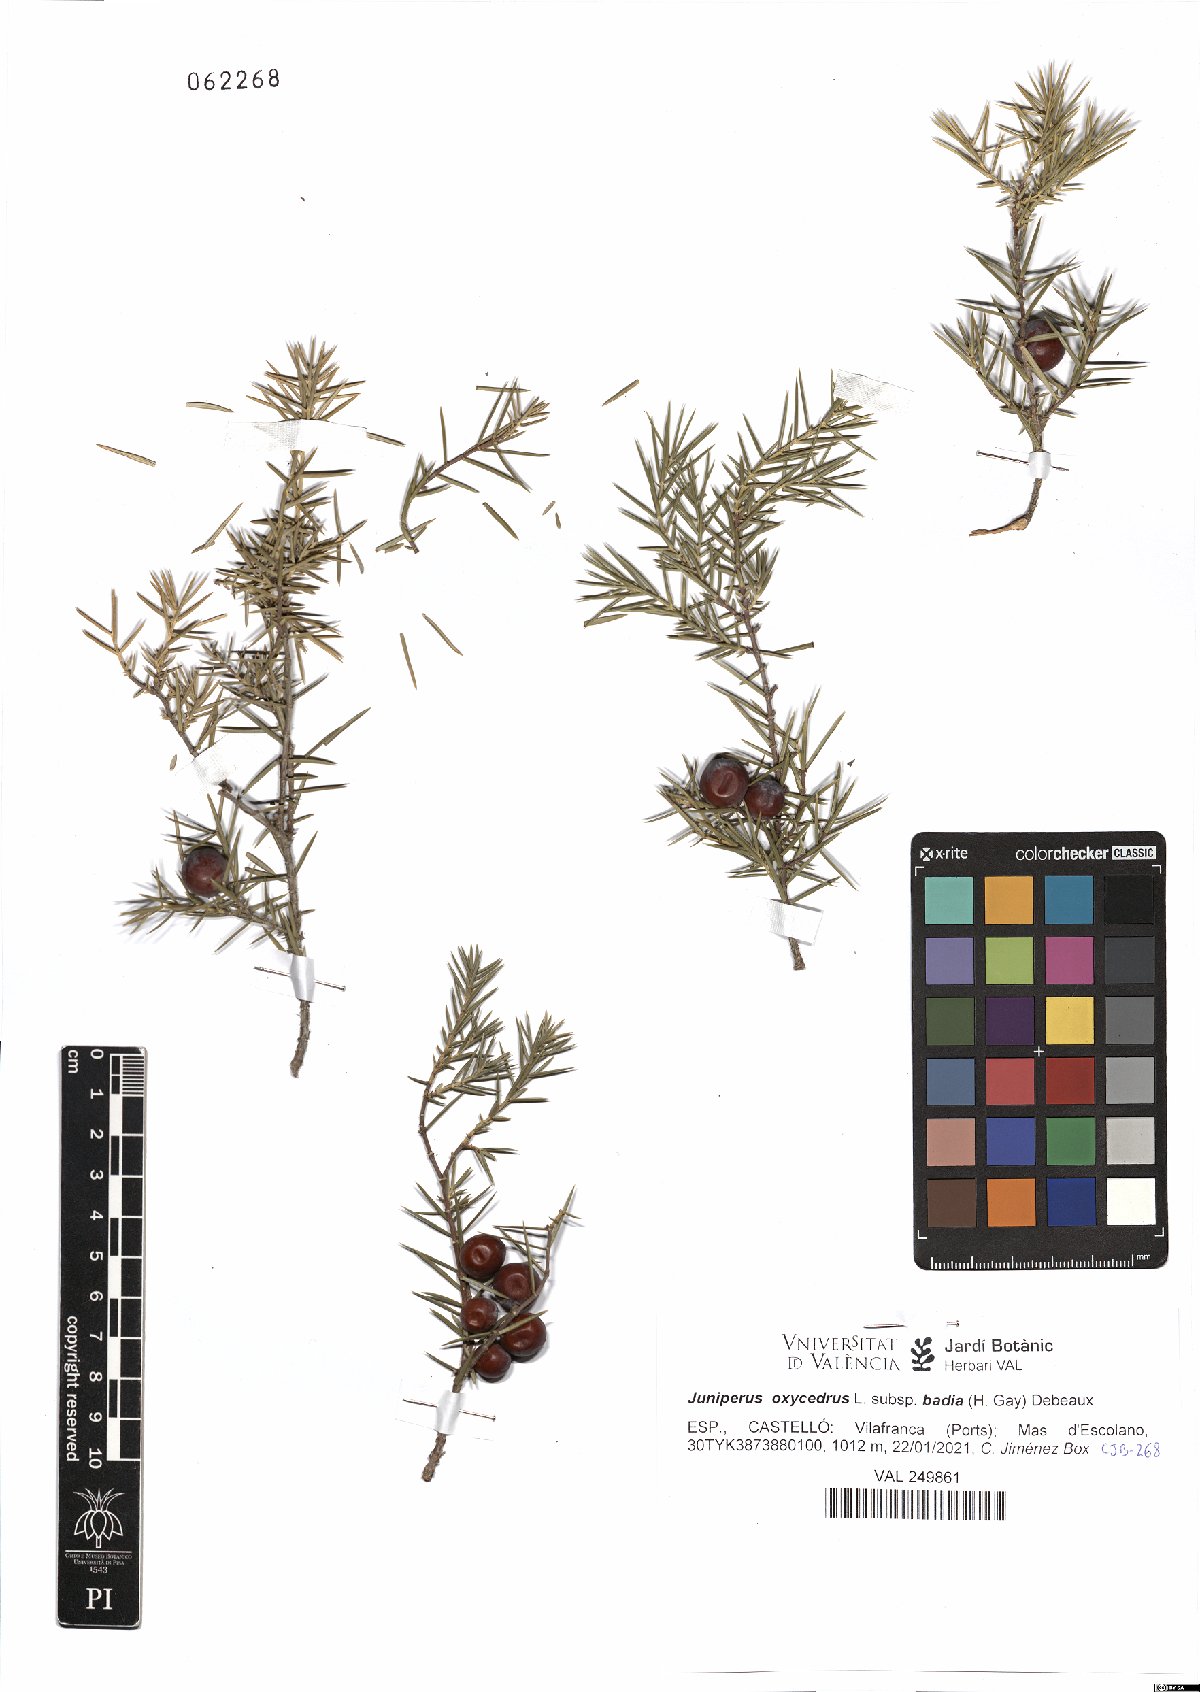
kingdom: Plantae
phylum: Tracheophyta
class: Pinopsida
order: Pinales
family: Cupressaceae
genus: Juniperus
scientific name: Juniperus oxycedrus
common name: Prickly juniper
